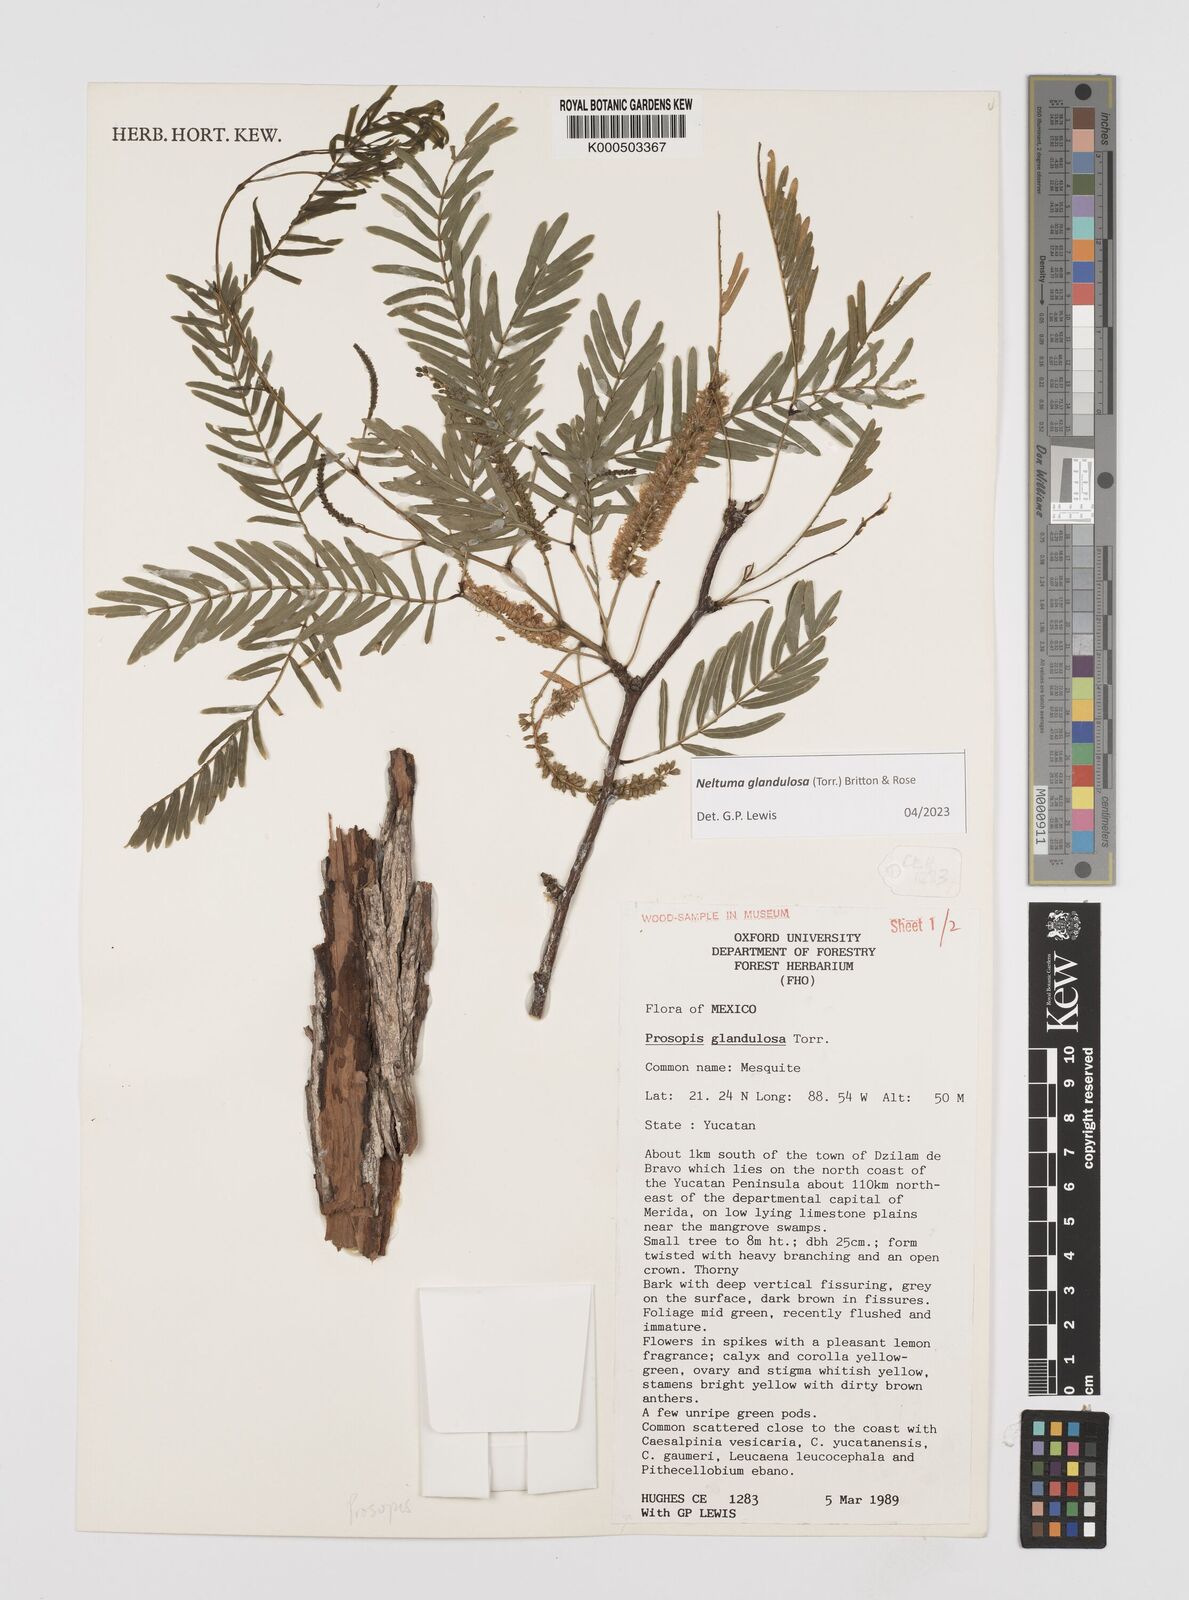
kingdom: Plantae
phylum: Tracheophyta
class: Magnoliopsida
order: Fabales
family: Fabaceae
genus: Prosopis
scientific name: Prosopis glandulosa
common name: Honey mesquite
